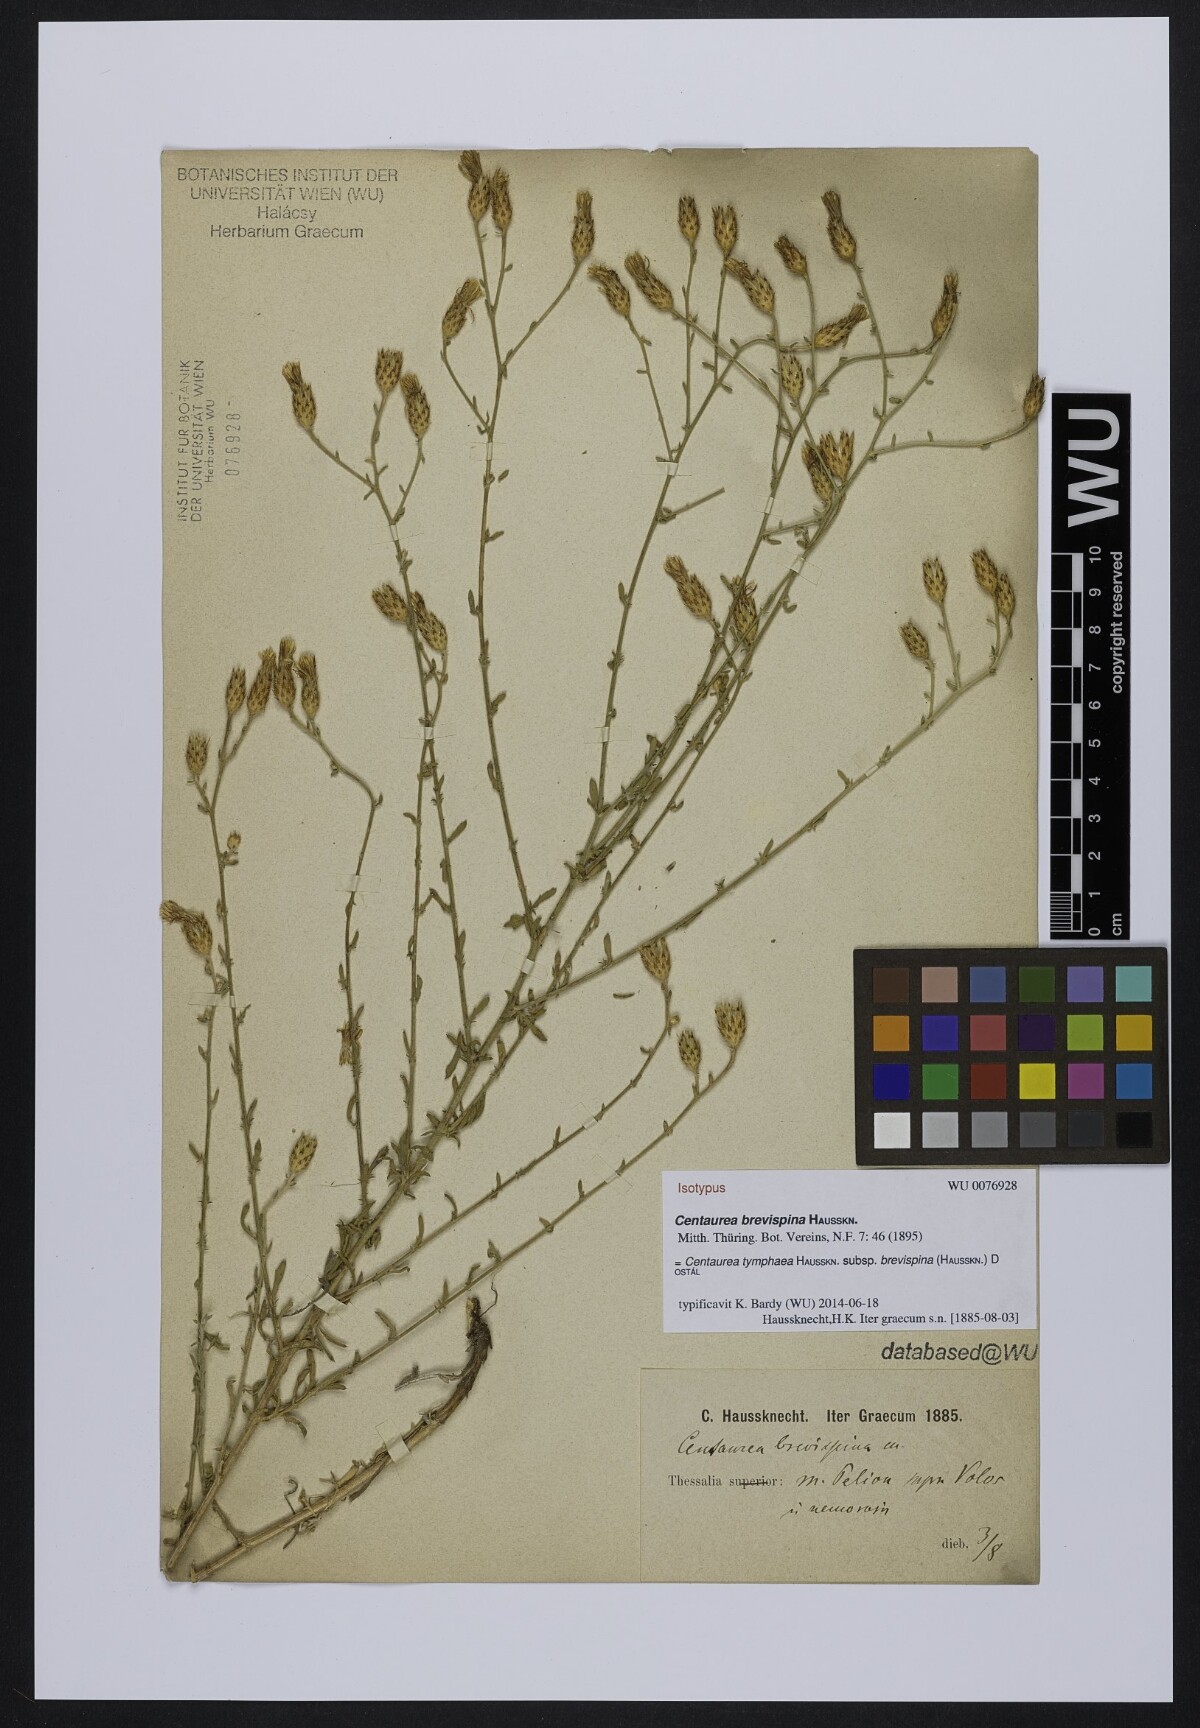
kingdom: Plantae
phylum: Tracheophyta
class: Magnoliopsida
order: Asterales
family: Asteraceae
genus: Centaurea
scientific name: Centaurea tymphaea
